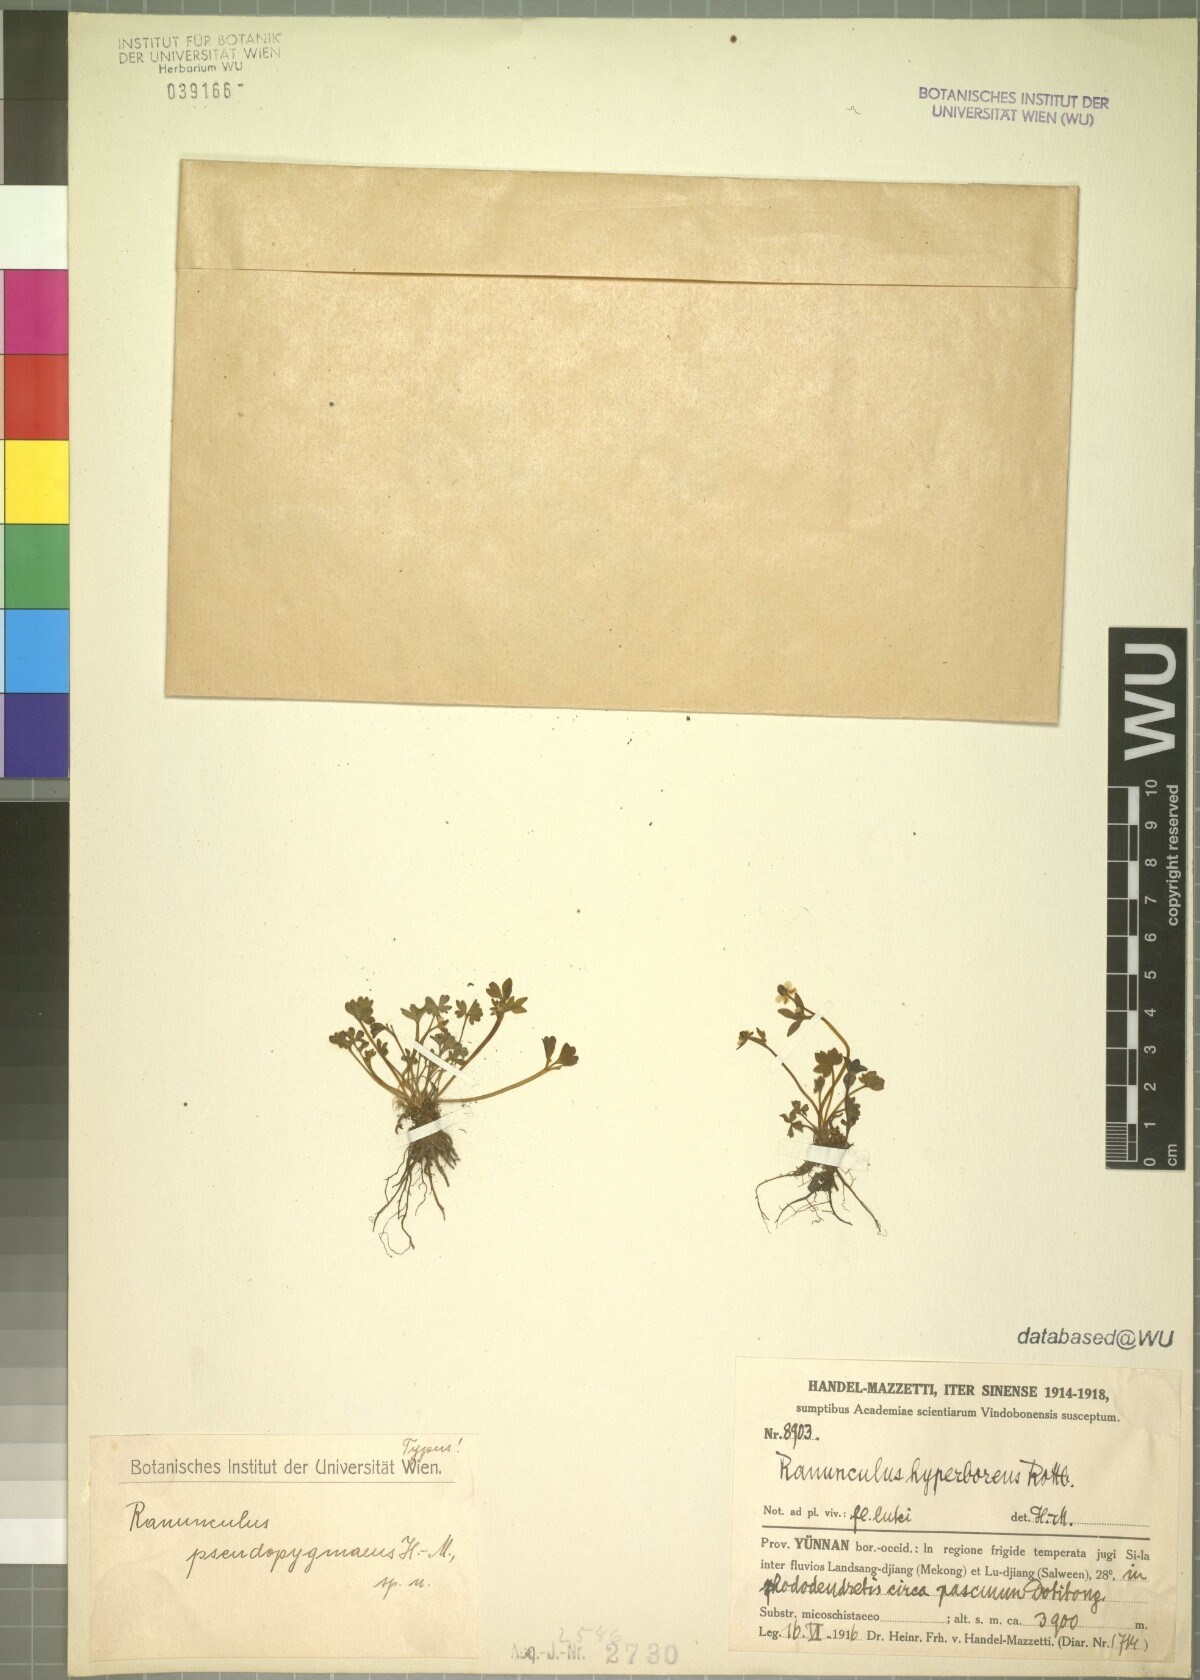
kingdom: Plantae
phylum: Tracheophyta
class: Magnoliopsida
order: Ranunculales
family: Ranunculaceae
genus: Ranunculus
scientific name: Ranunculus pseudopygmaeus
